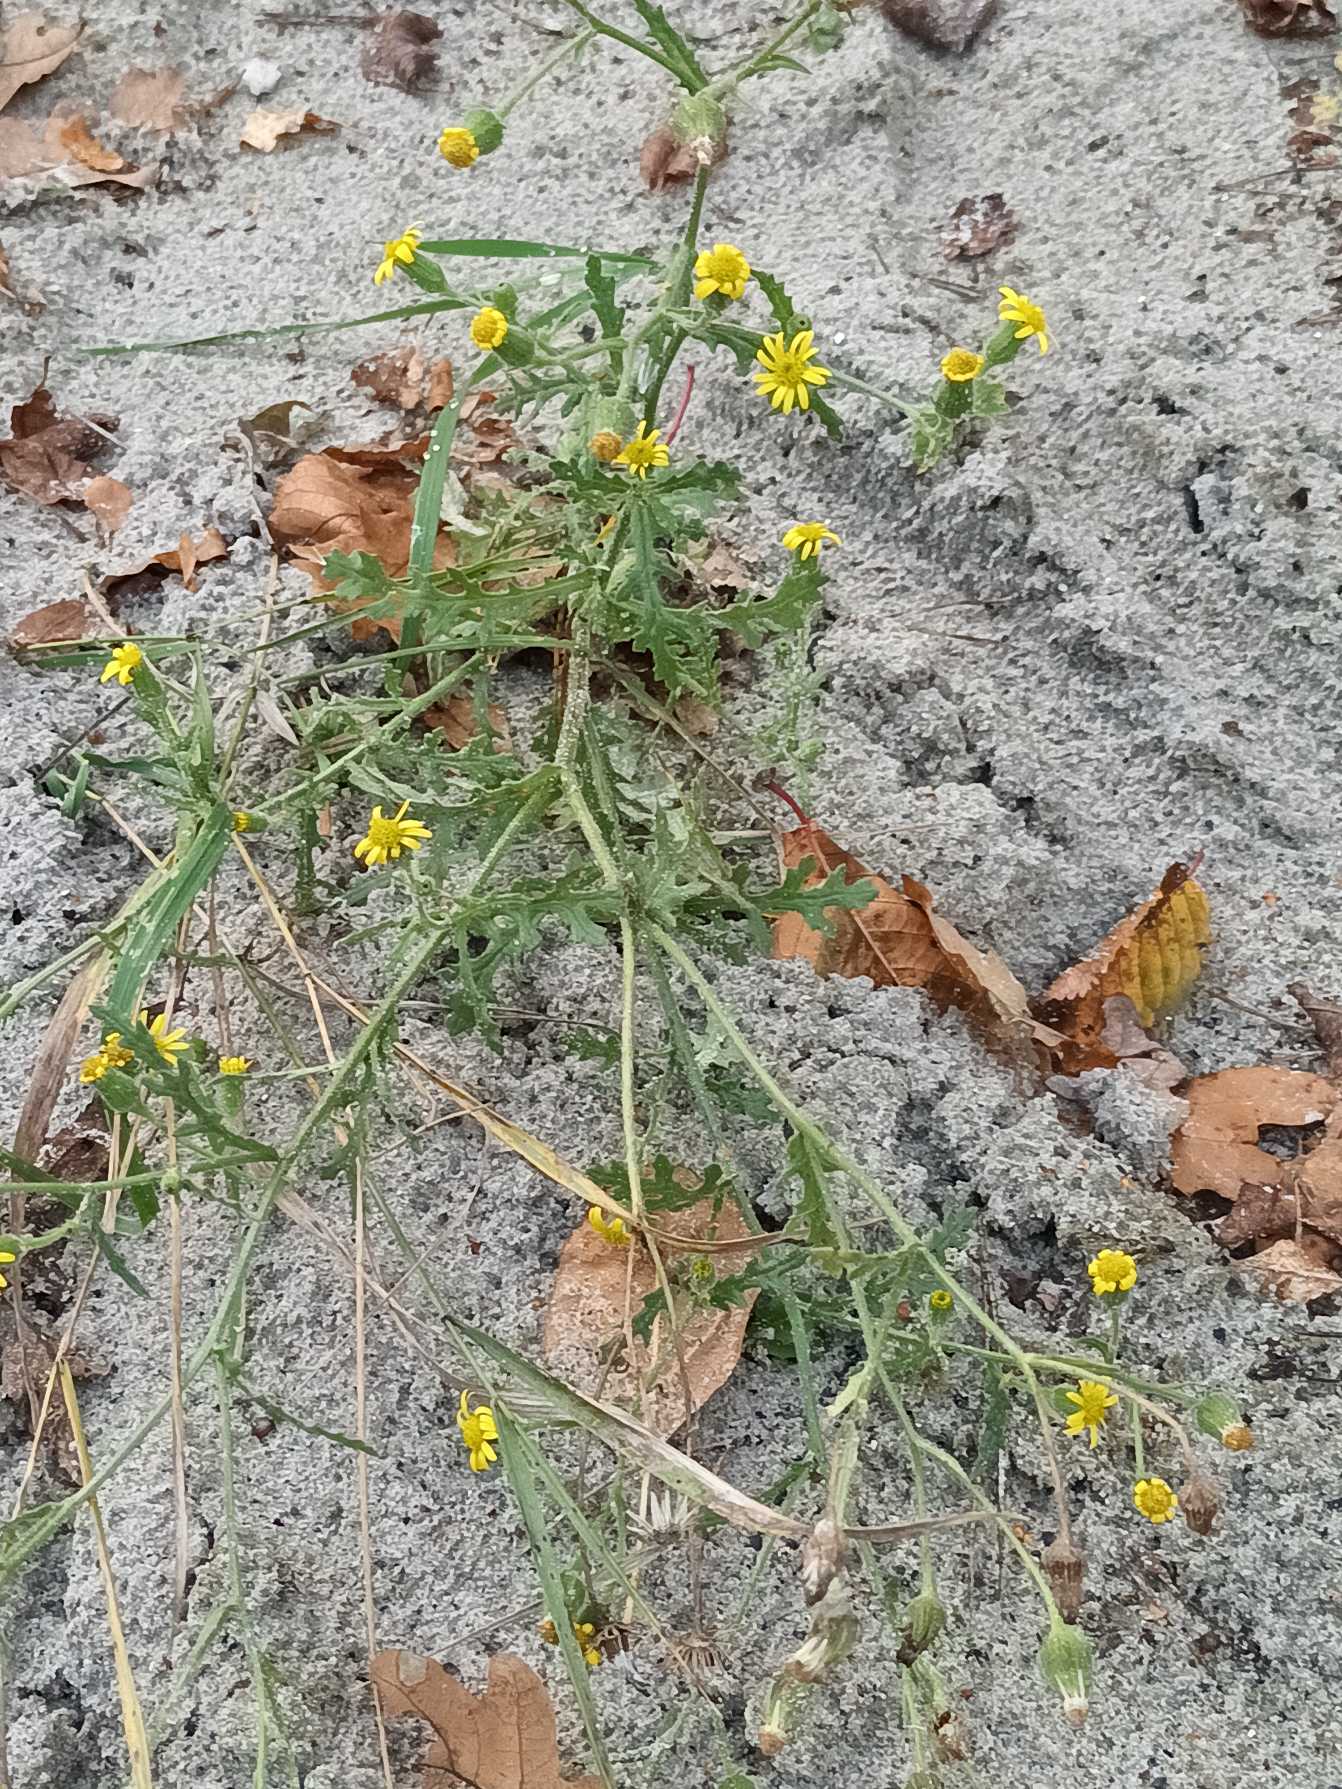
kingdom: Plantae
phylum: Tracheophyta
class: Magnoliopsida
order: Asterales
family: Asteraceae
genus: Senecio
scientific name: Senecio viscosus
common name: Klæbrig brandbæger
